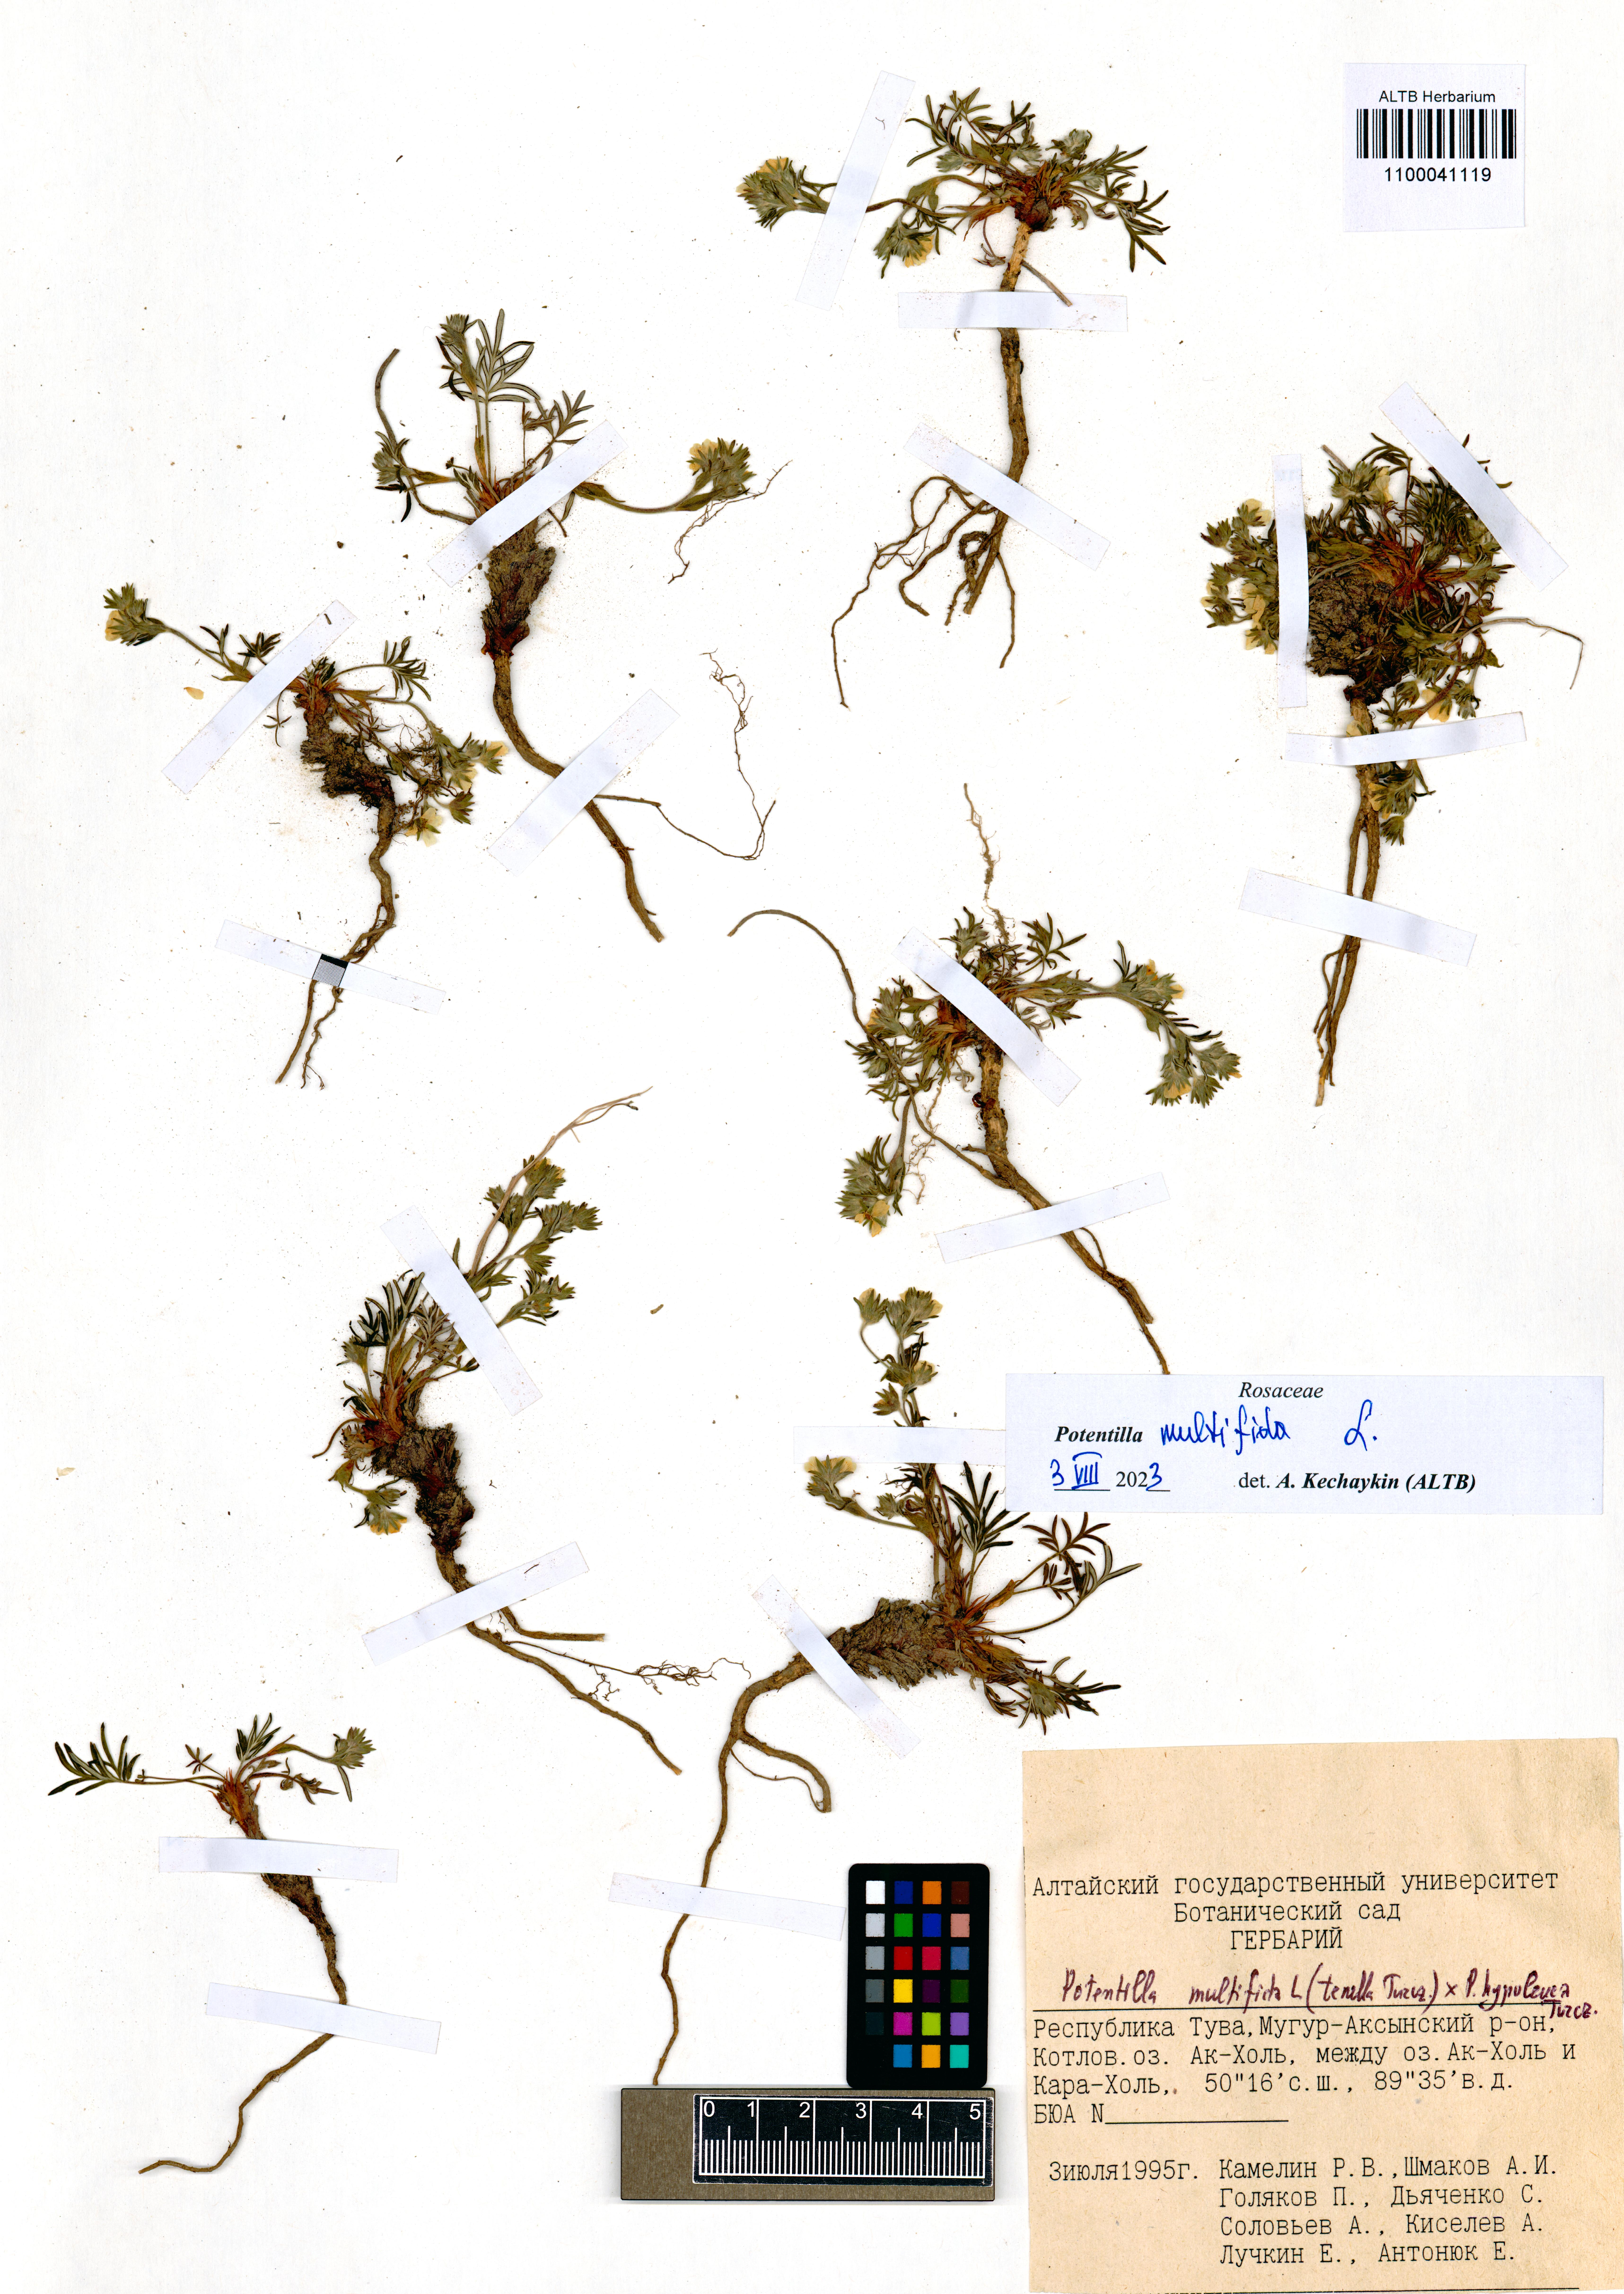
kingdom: Plantae
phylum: Tracheophyta
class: Magnoliopsida
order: Rosales
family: Rosaceae
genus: Potentilla
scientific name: Potentilla multifida
